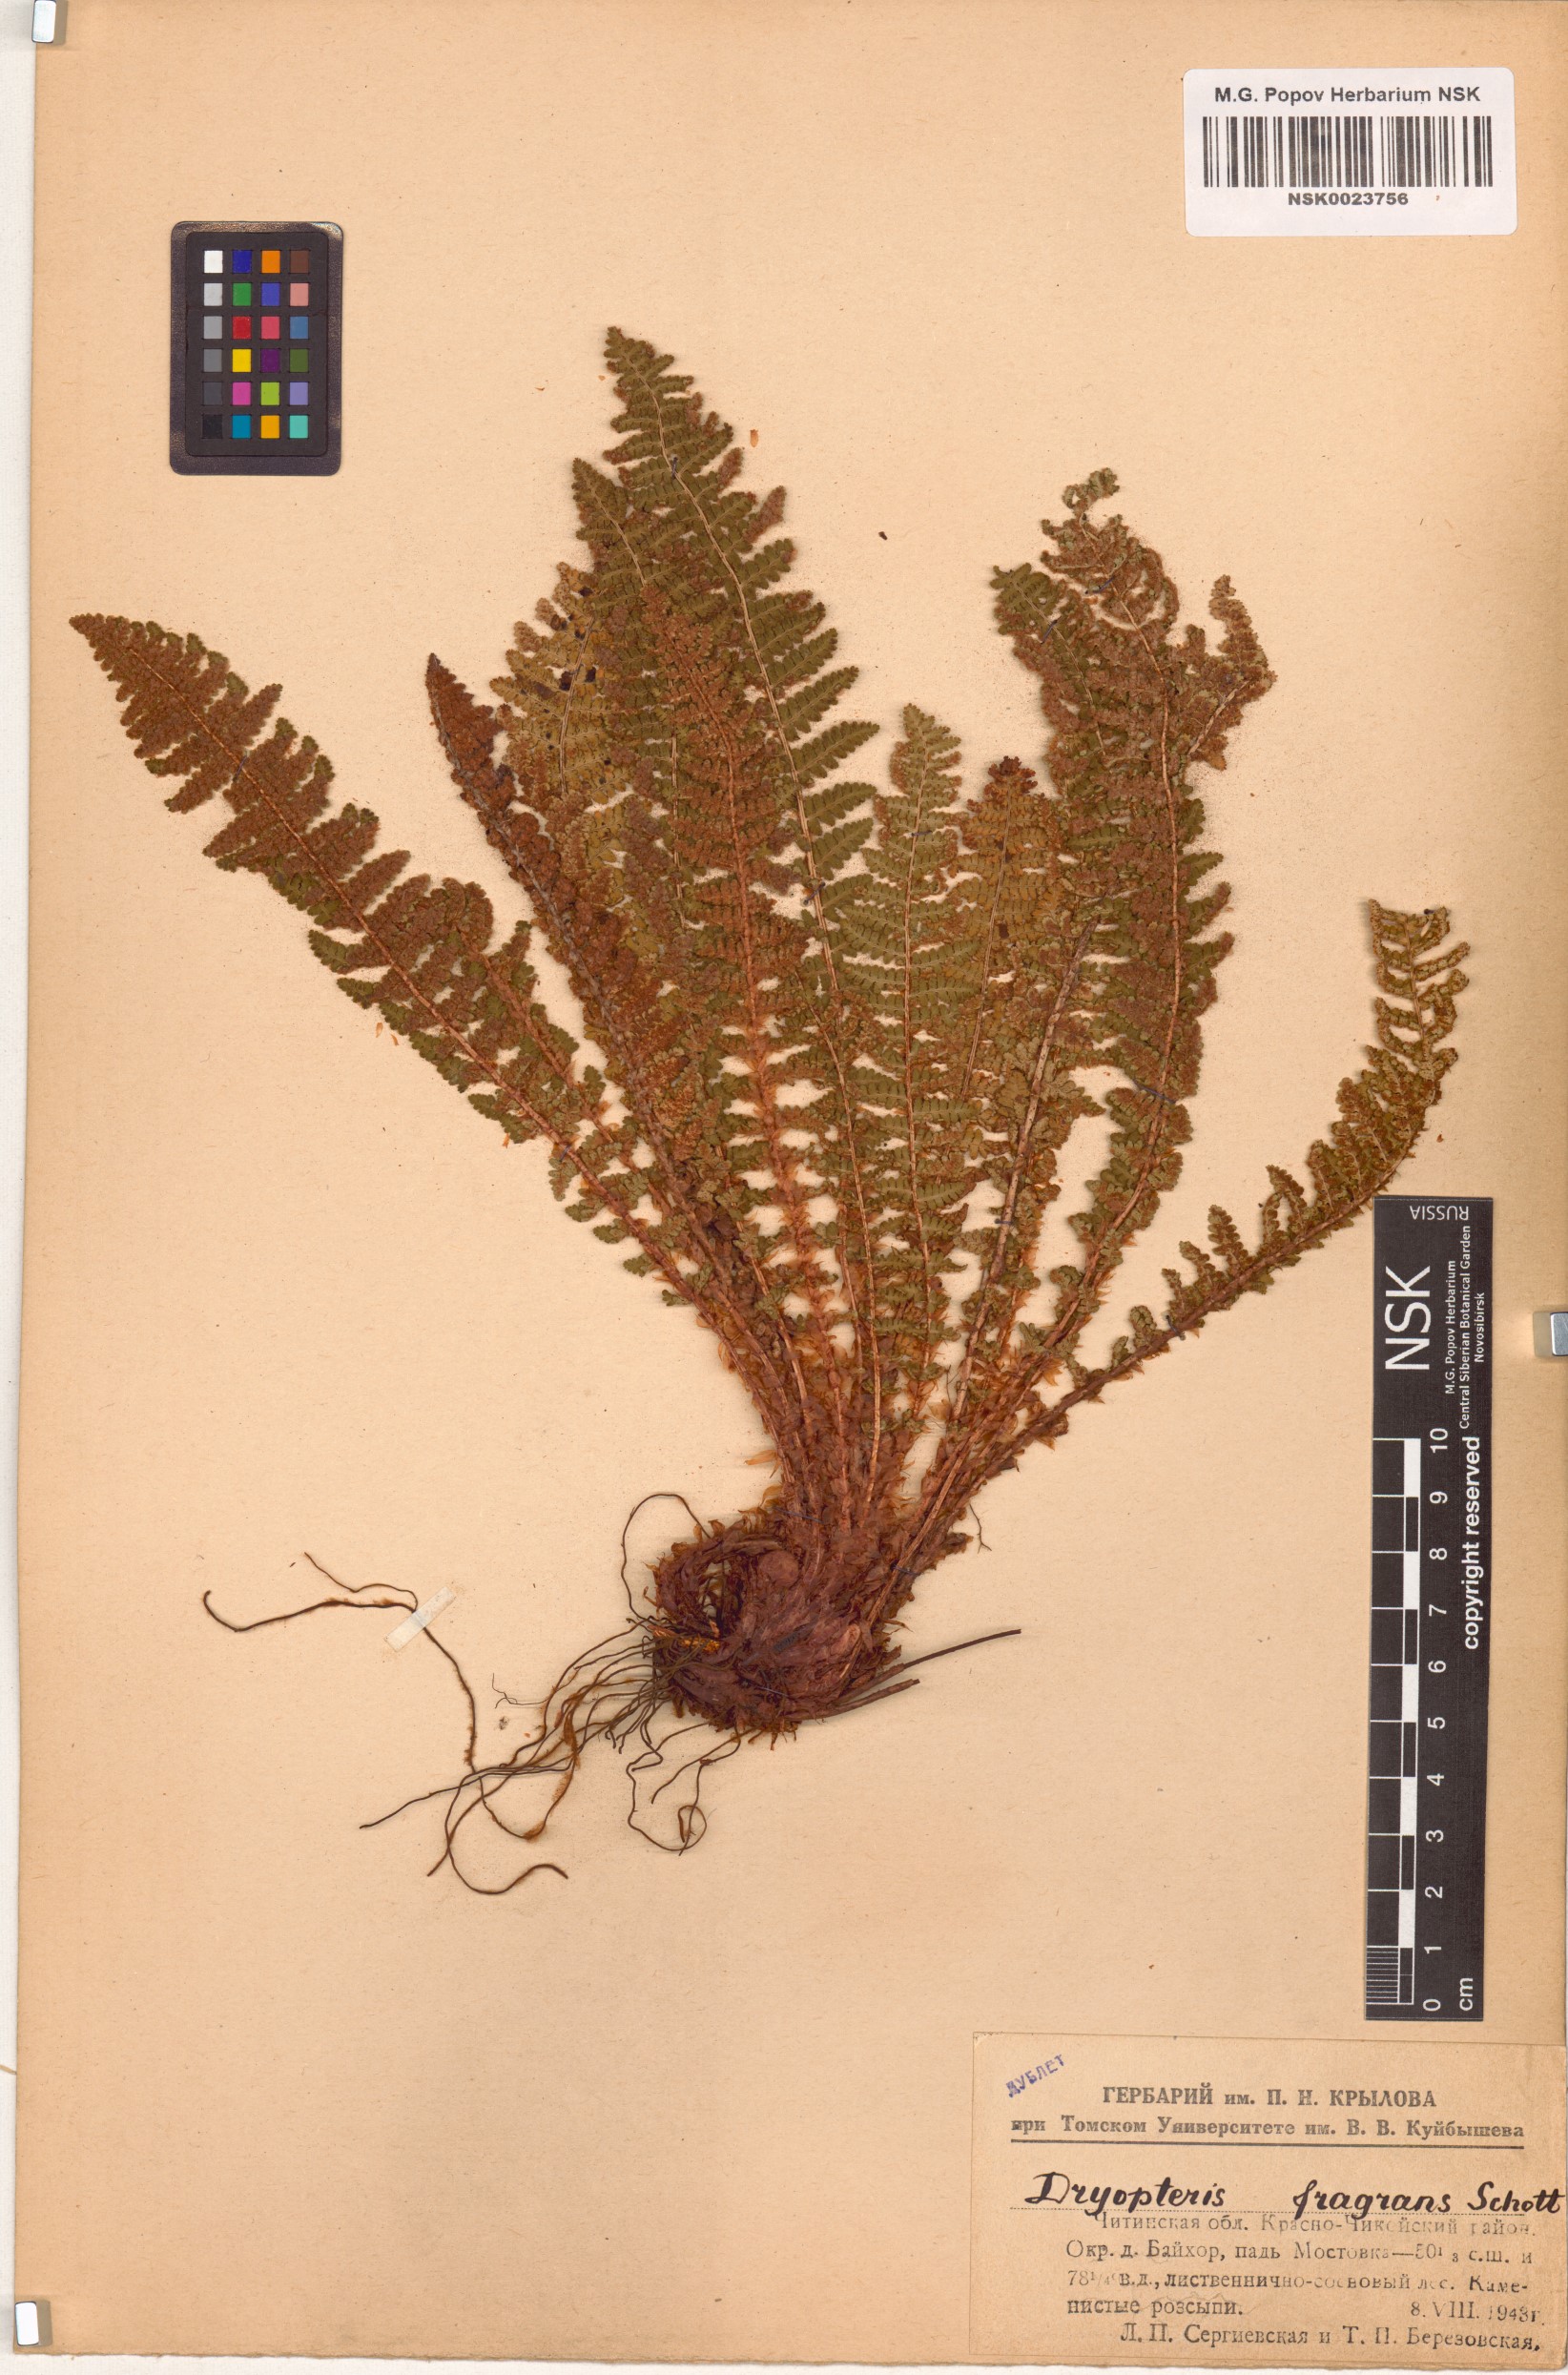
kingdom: Plantae
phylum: Tracheophyta
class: Polypodiopsida
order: Polypodiales
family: Dryopteridaceae
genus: Dryopteris
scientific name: Dryopteris fragrans
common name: Fragrant wood fern
